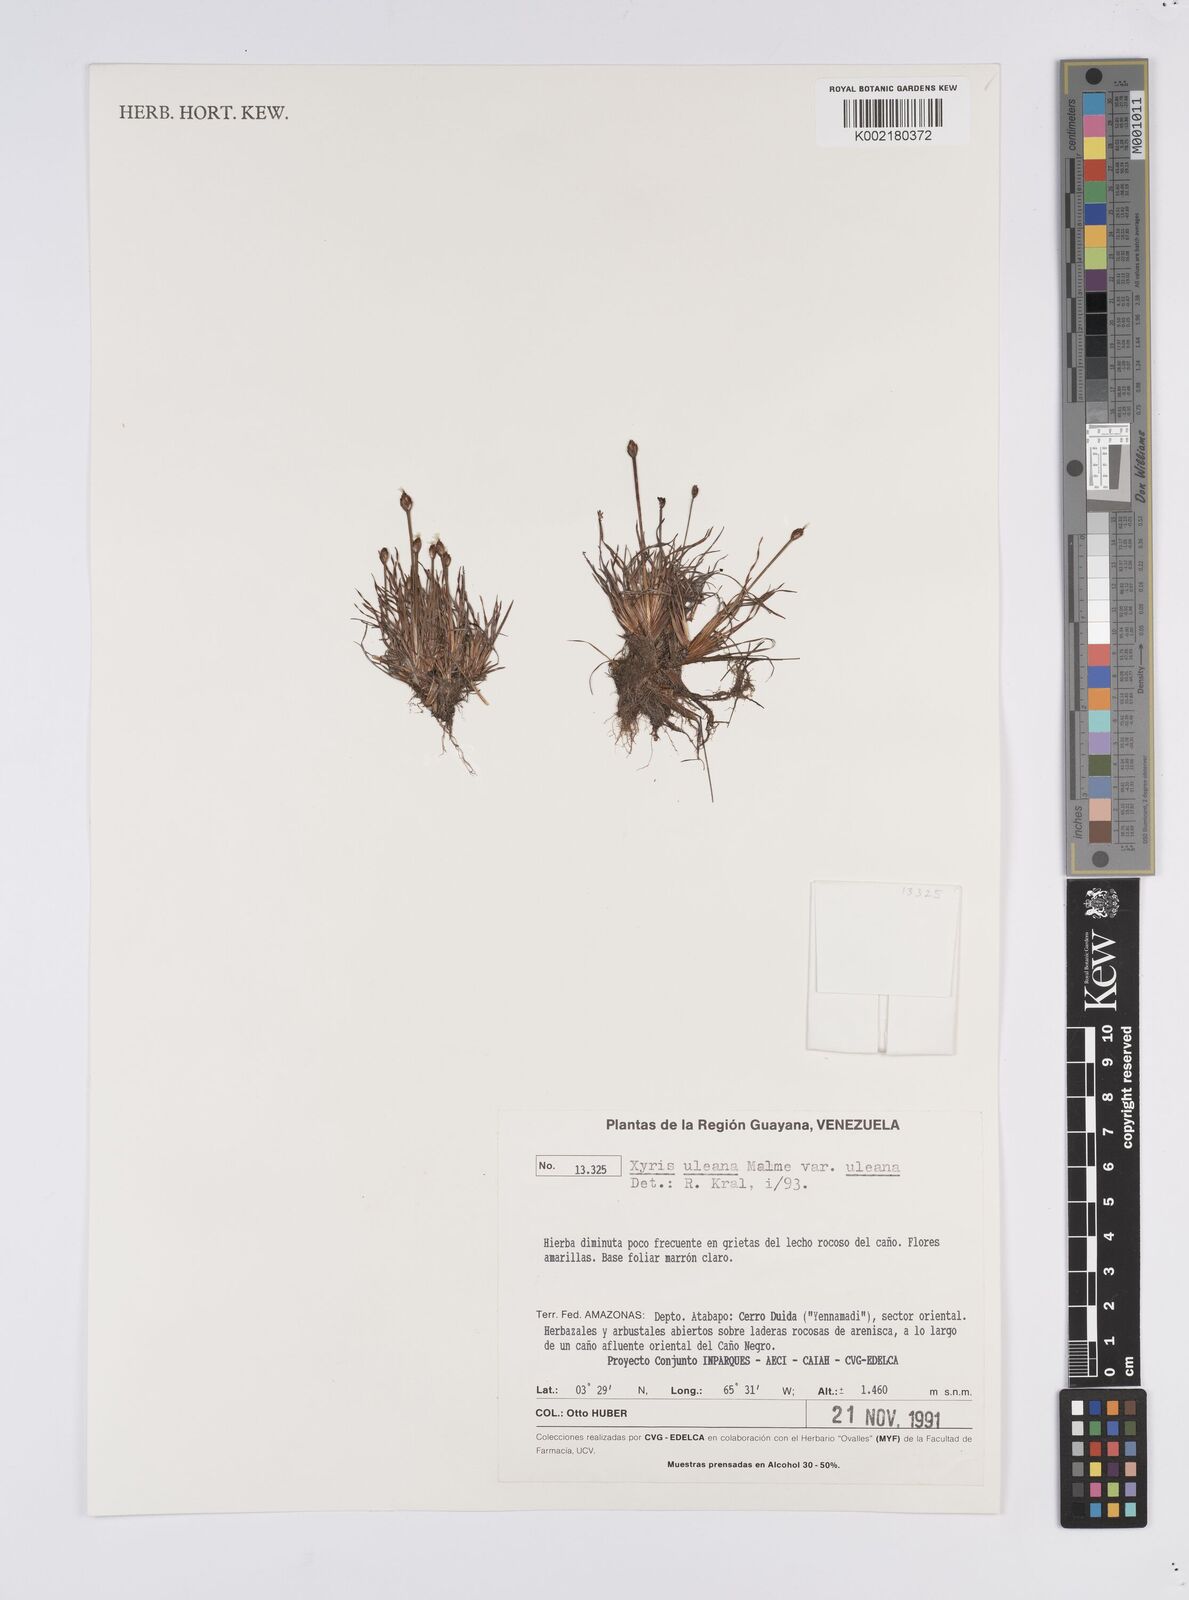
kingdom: Plantae
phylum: Tracheophyta
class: Liliopsida
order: Poales
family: Xyridaceae
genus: Xyris
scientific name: Xyris uleana
